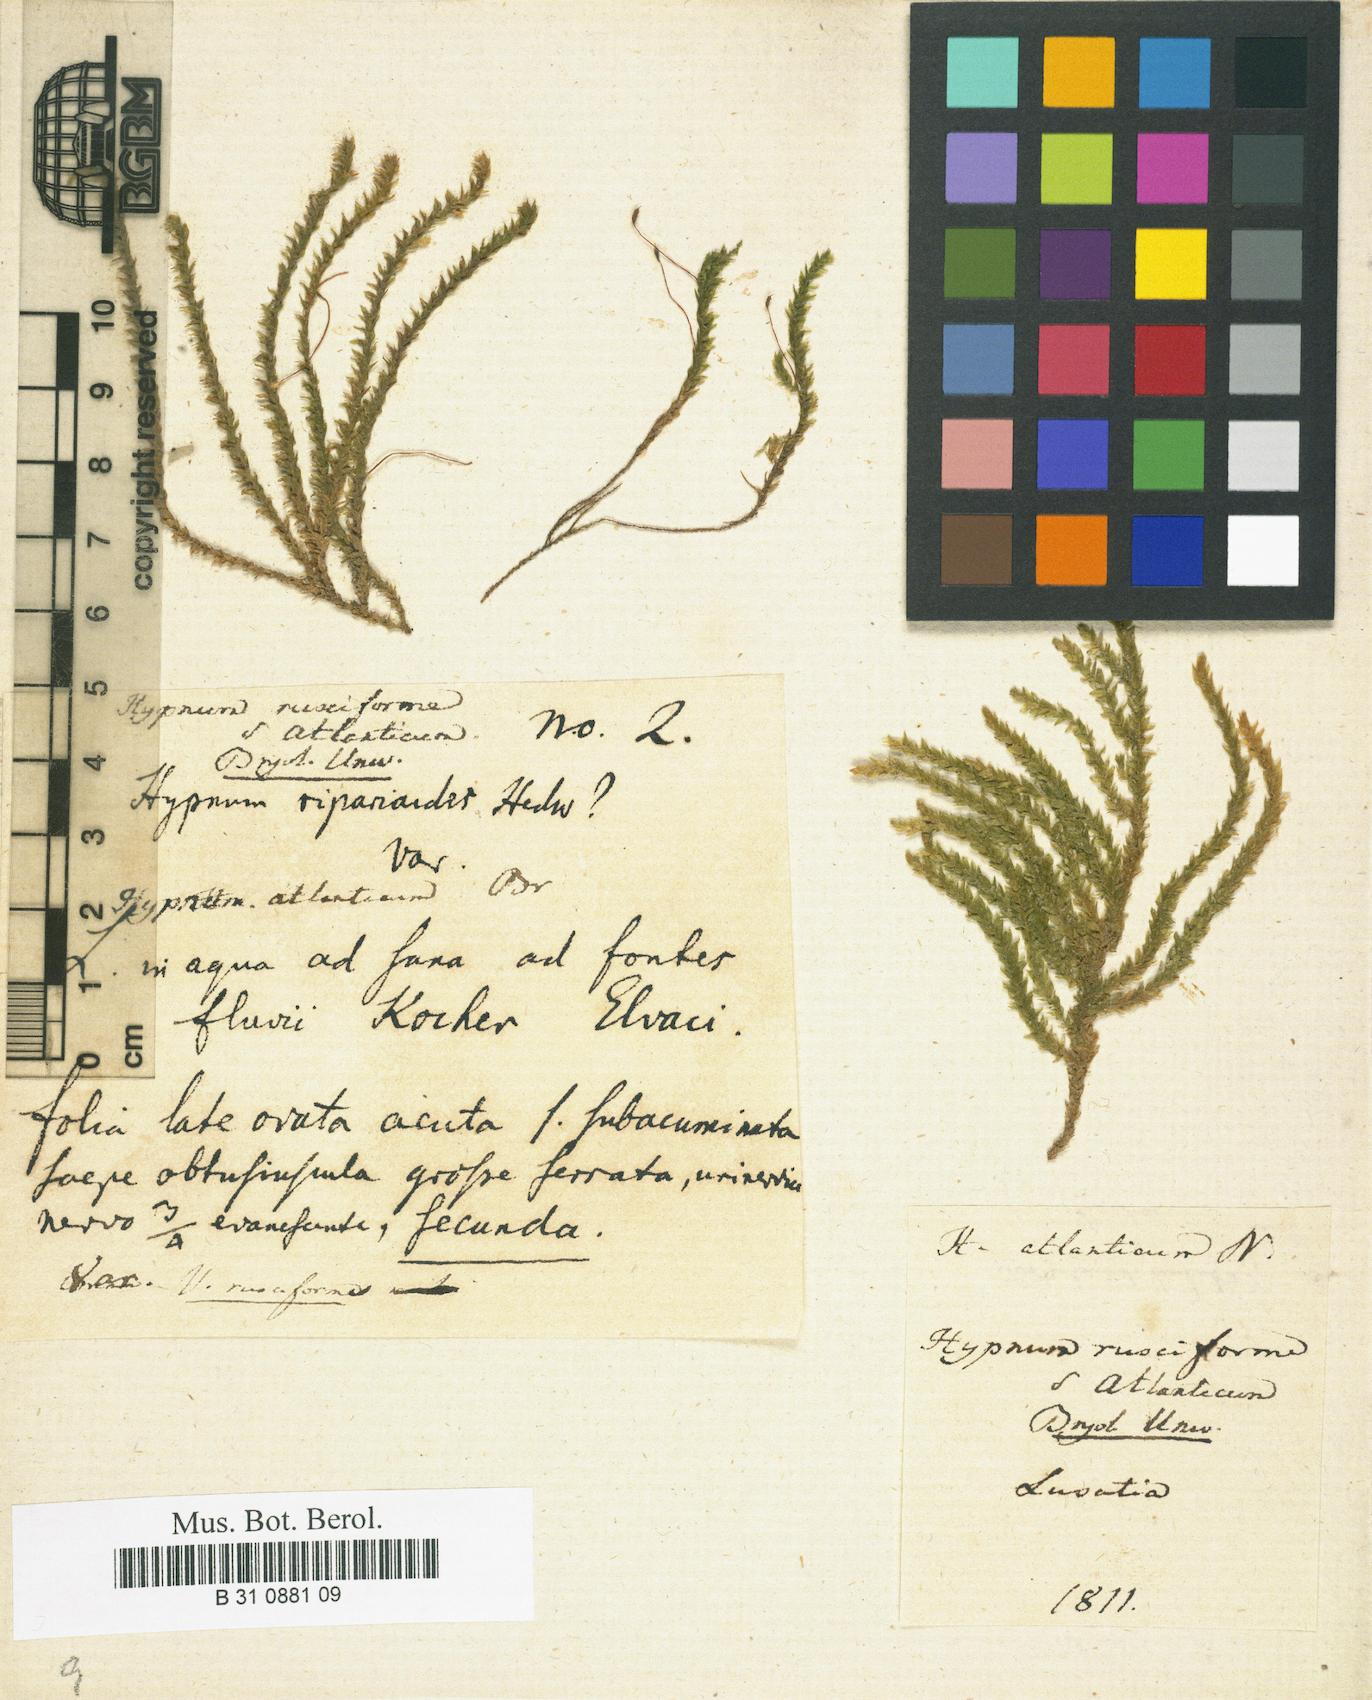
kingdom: Plantae
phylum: Bryophyta
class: Bryopsida
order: Hypnales
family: Brachytheciaceae
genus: Rhynchostegium
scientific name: Rhynchostegium riparioides
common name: Platyhypnidium moss
